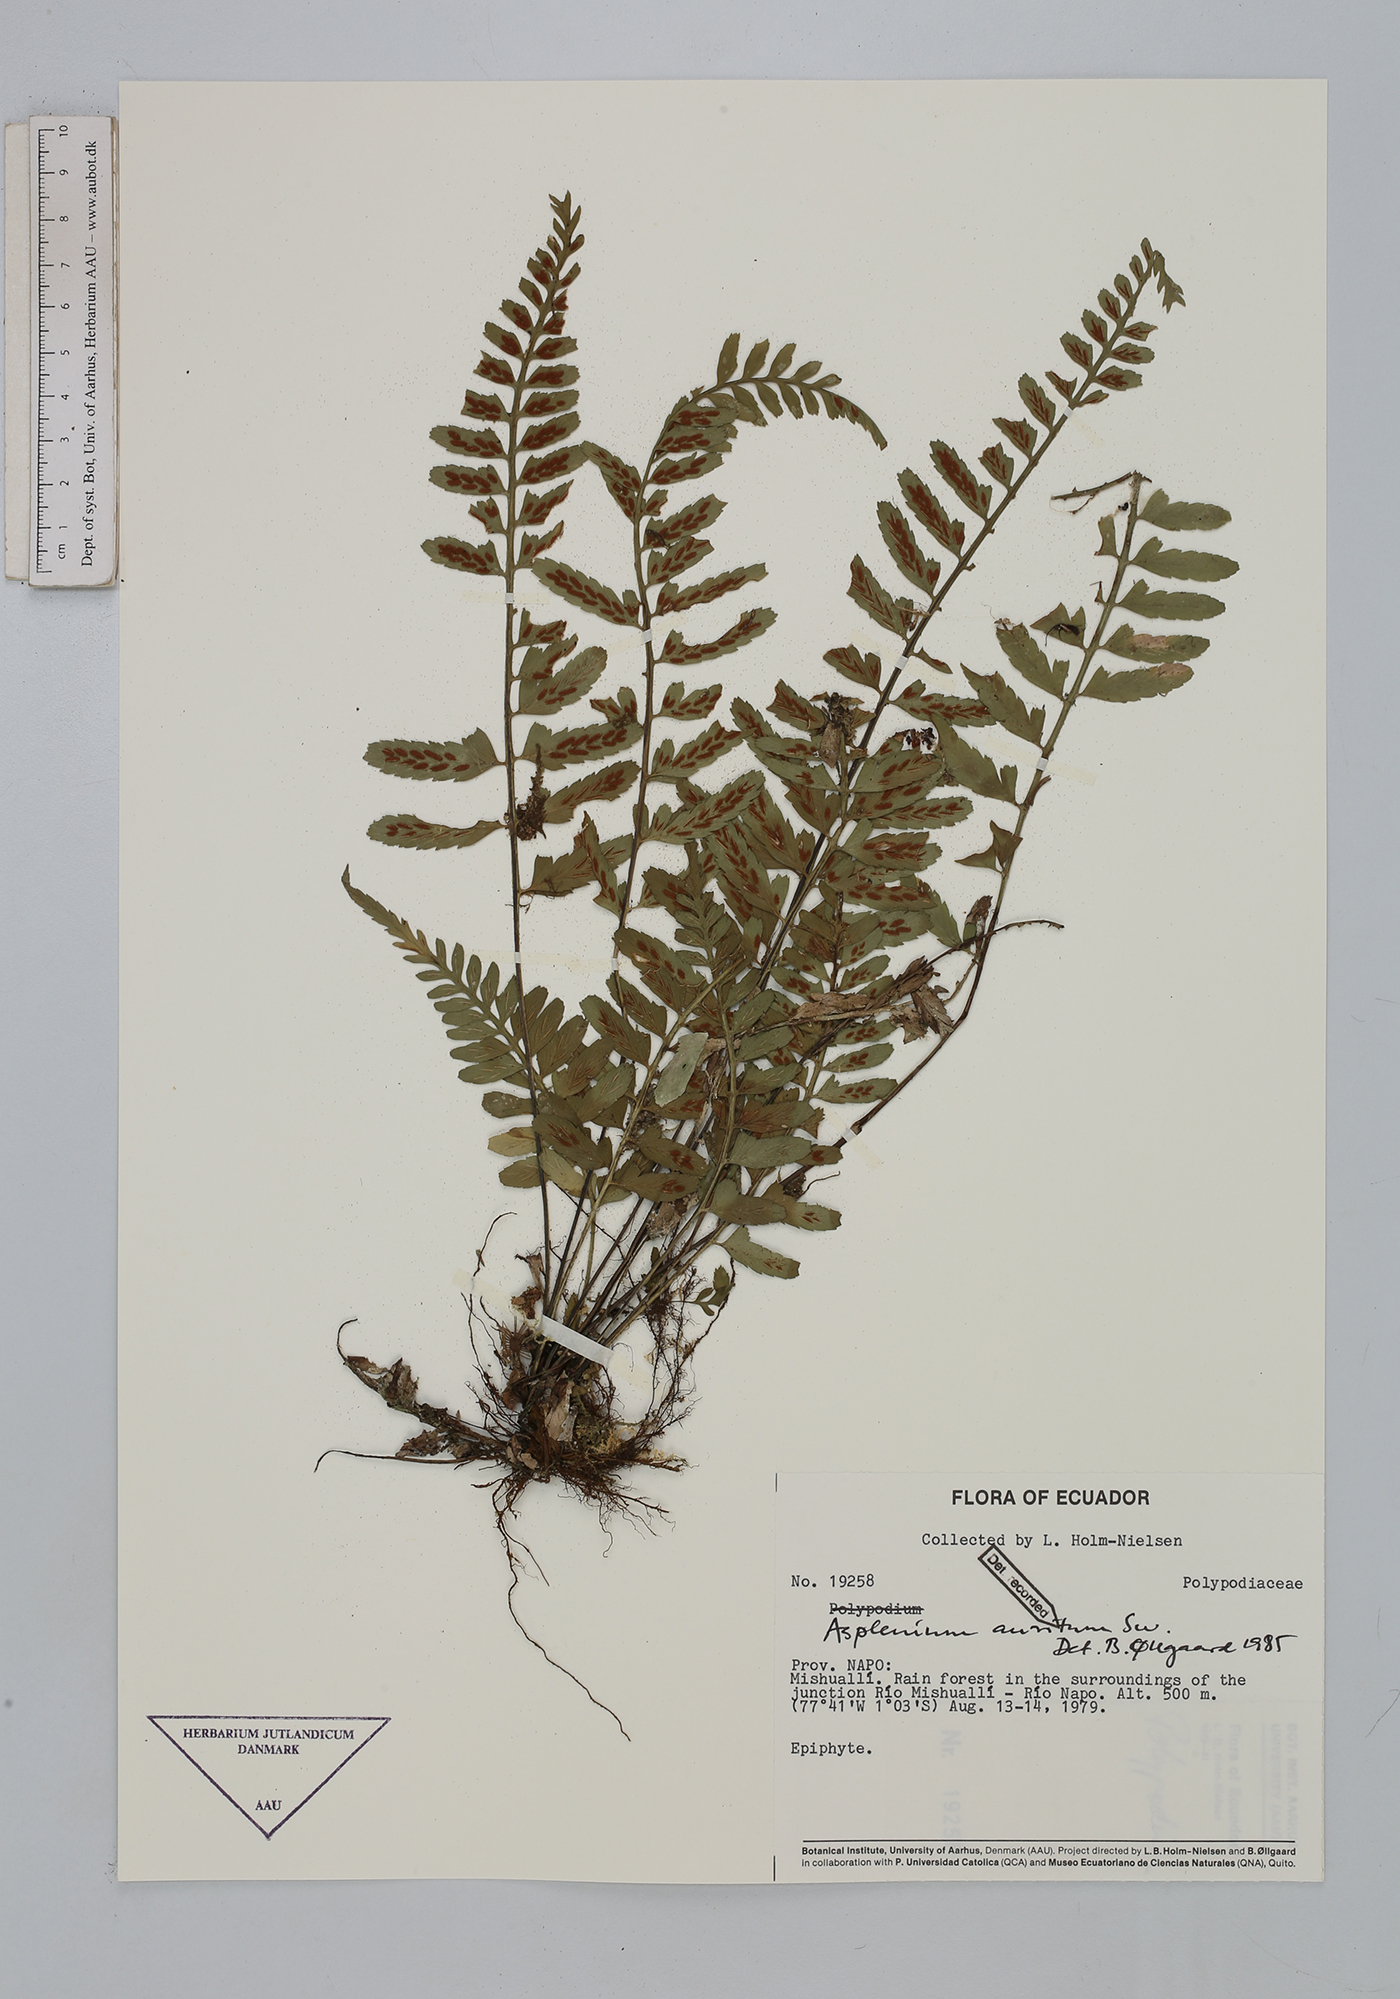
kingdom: Plantae
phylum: Tracheophyta
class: Polypodiopsida
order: Polypodiales
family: Aspleniaceae
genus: Asplenium
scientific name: Asplenium auritum
